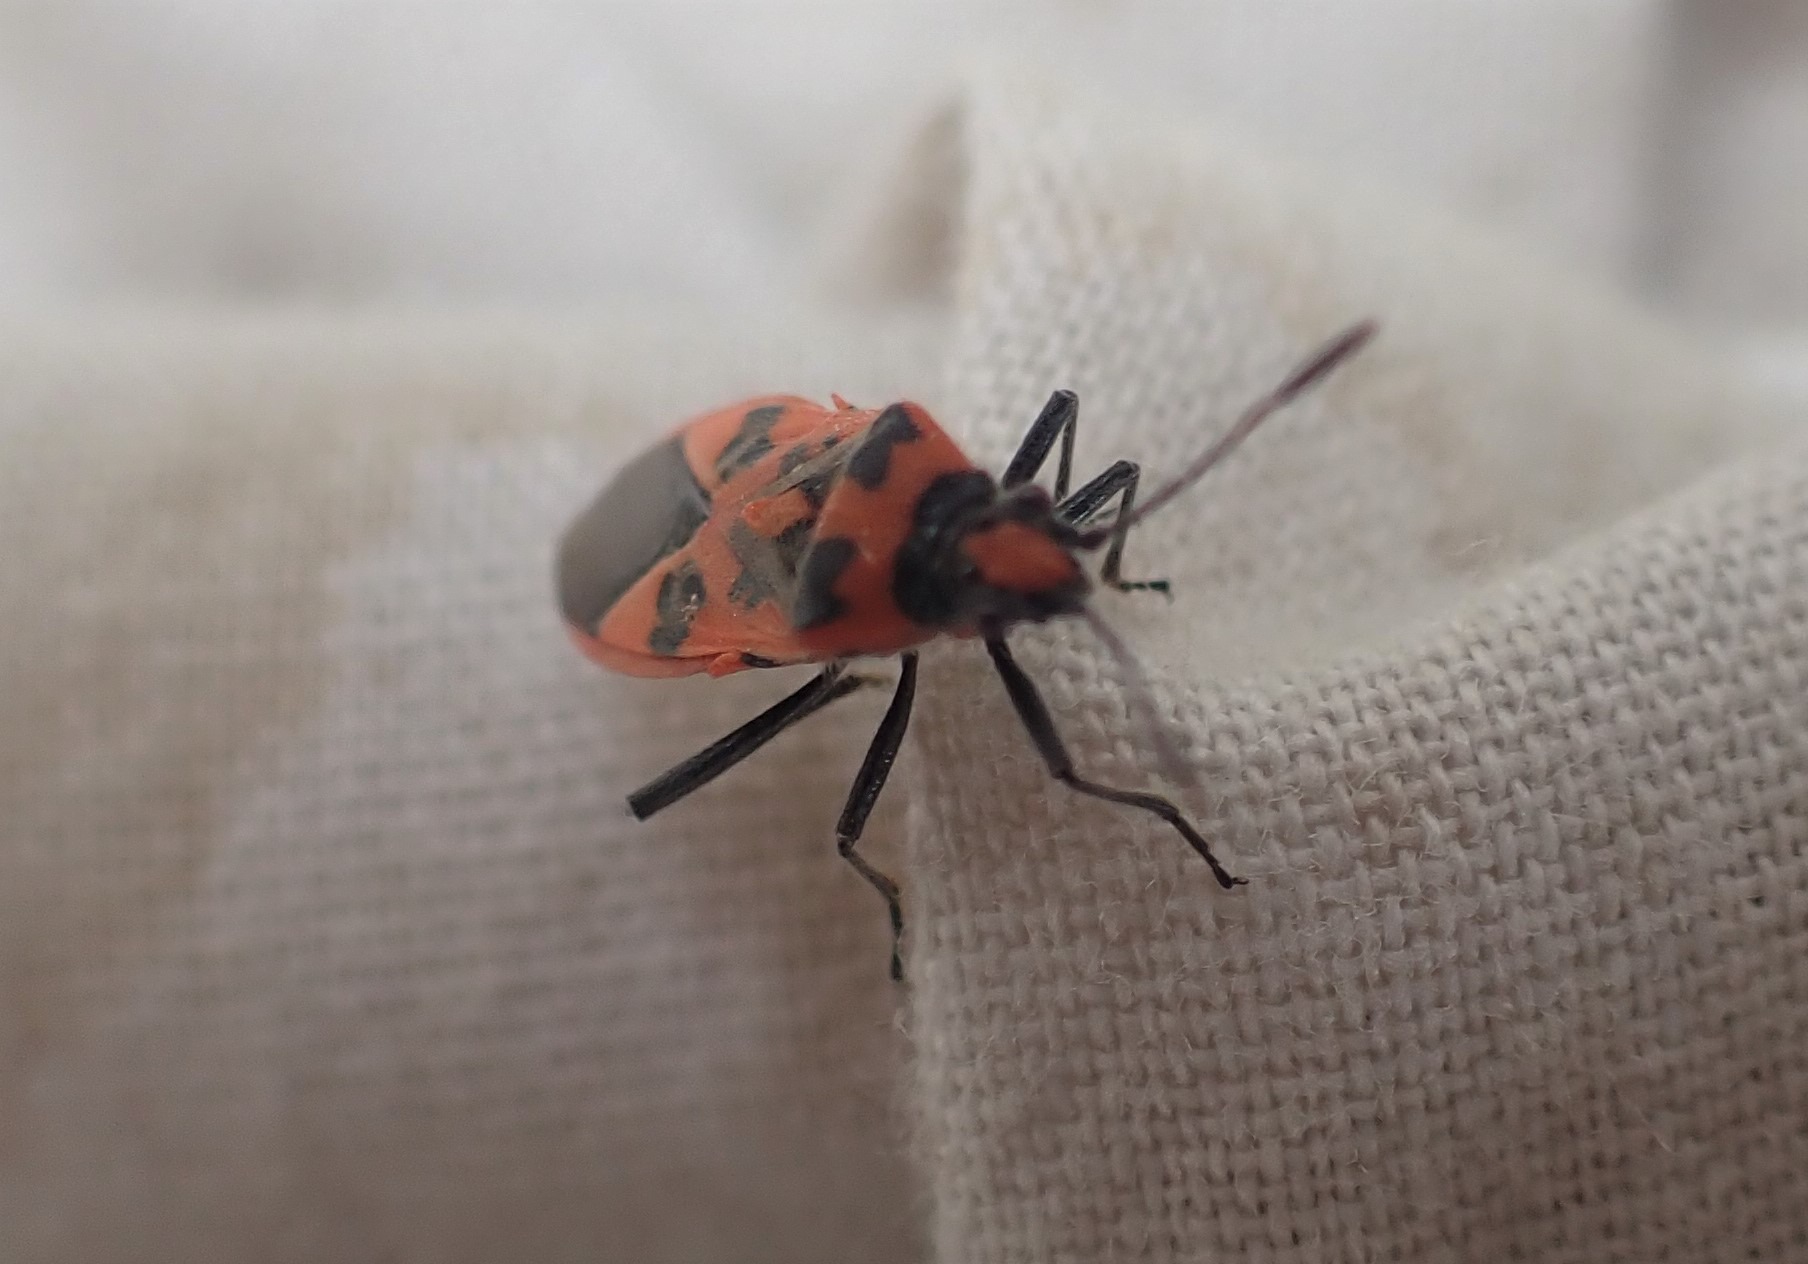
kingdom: Animalia
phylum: Arthropoda
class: Insecta
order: Hemiptera
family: Rhopalidae
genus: Corizus
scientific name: Corizus hyoscyami
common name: Rød kanttæge
